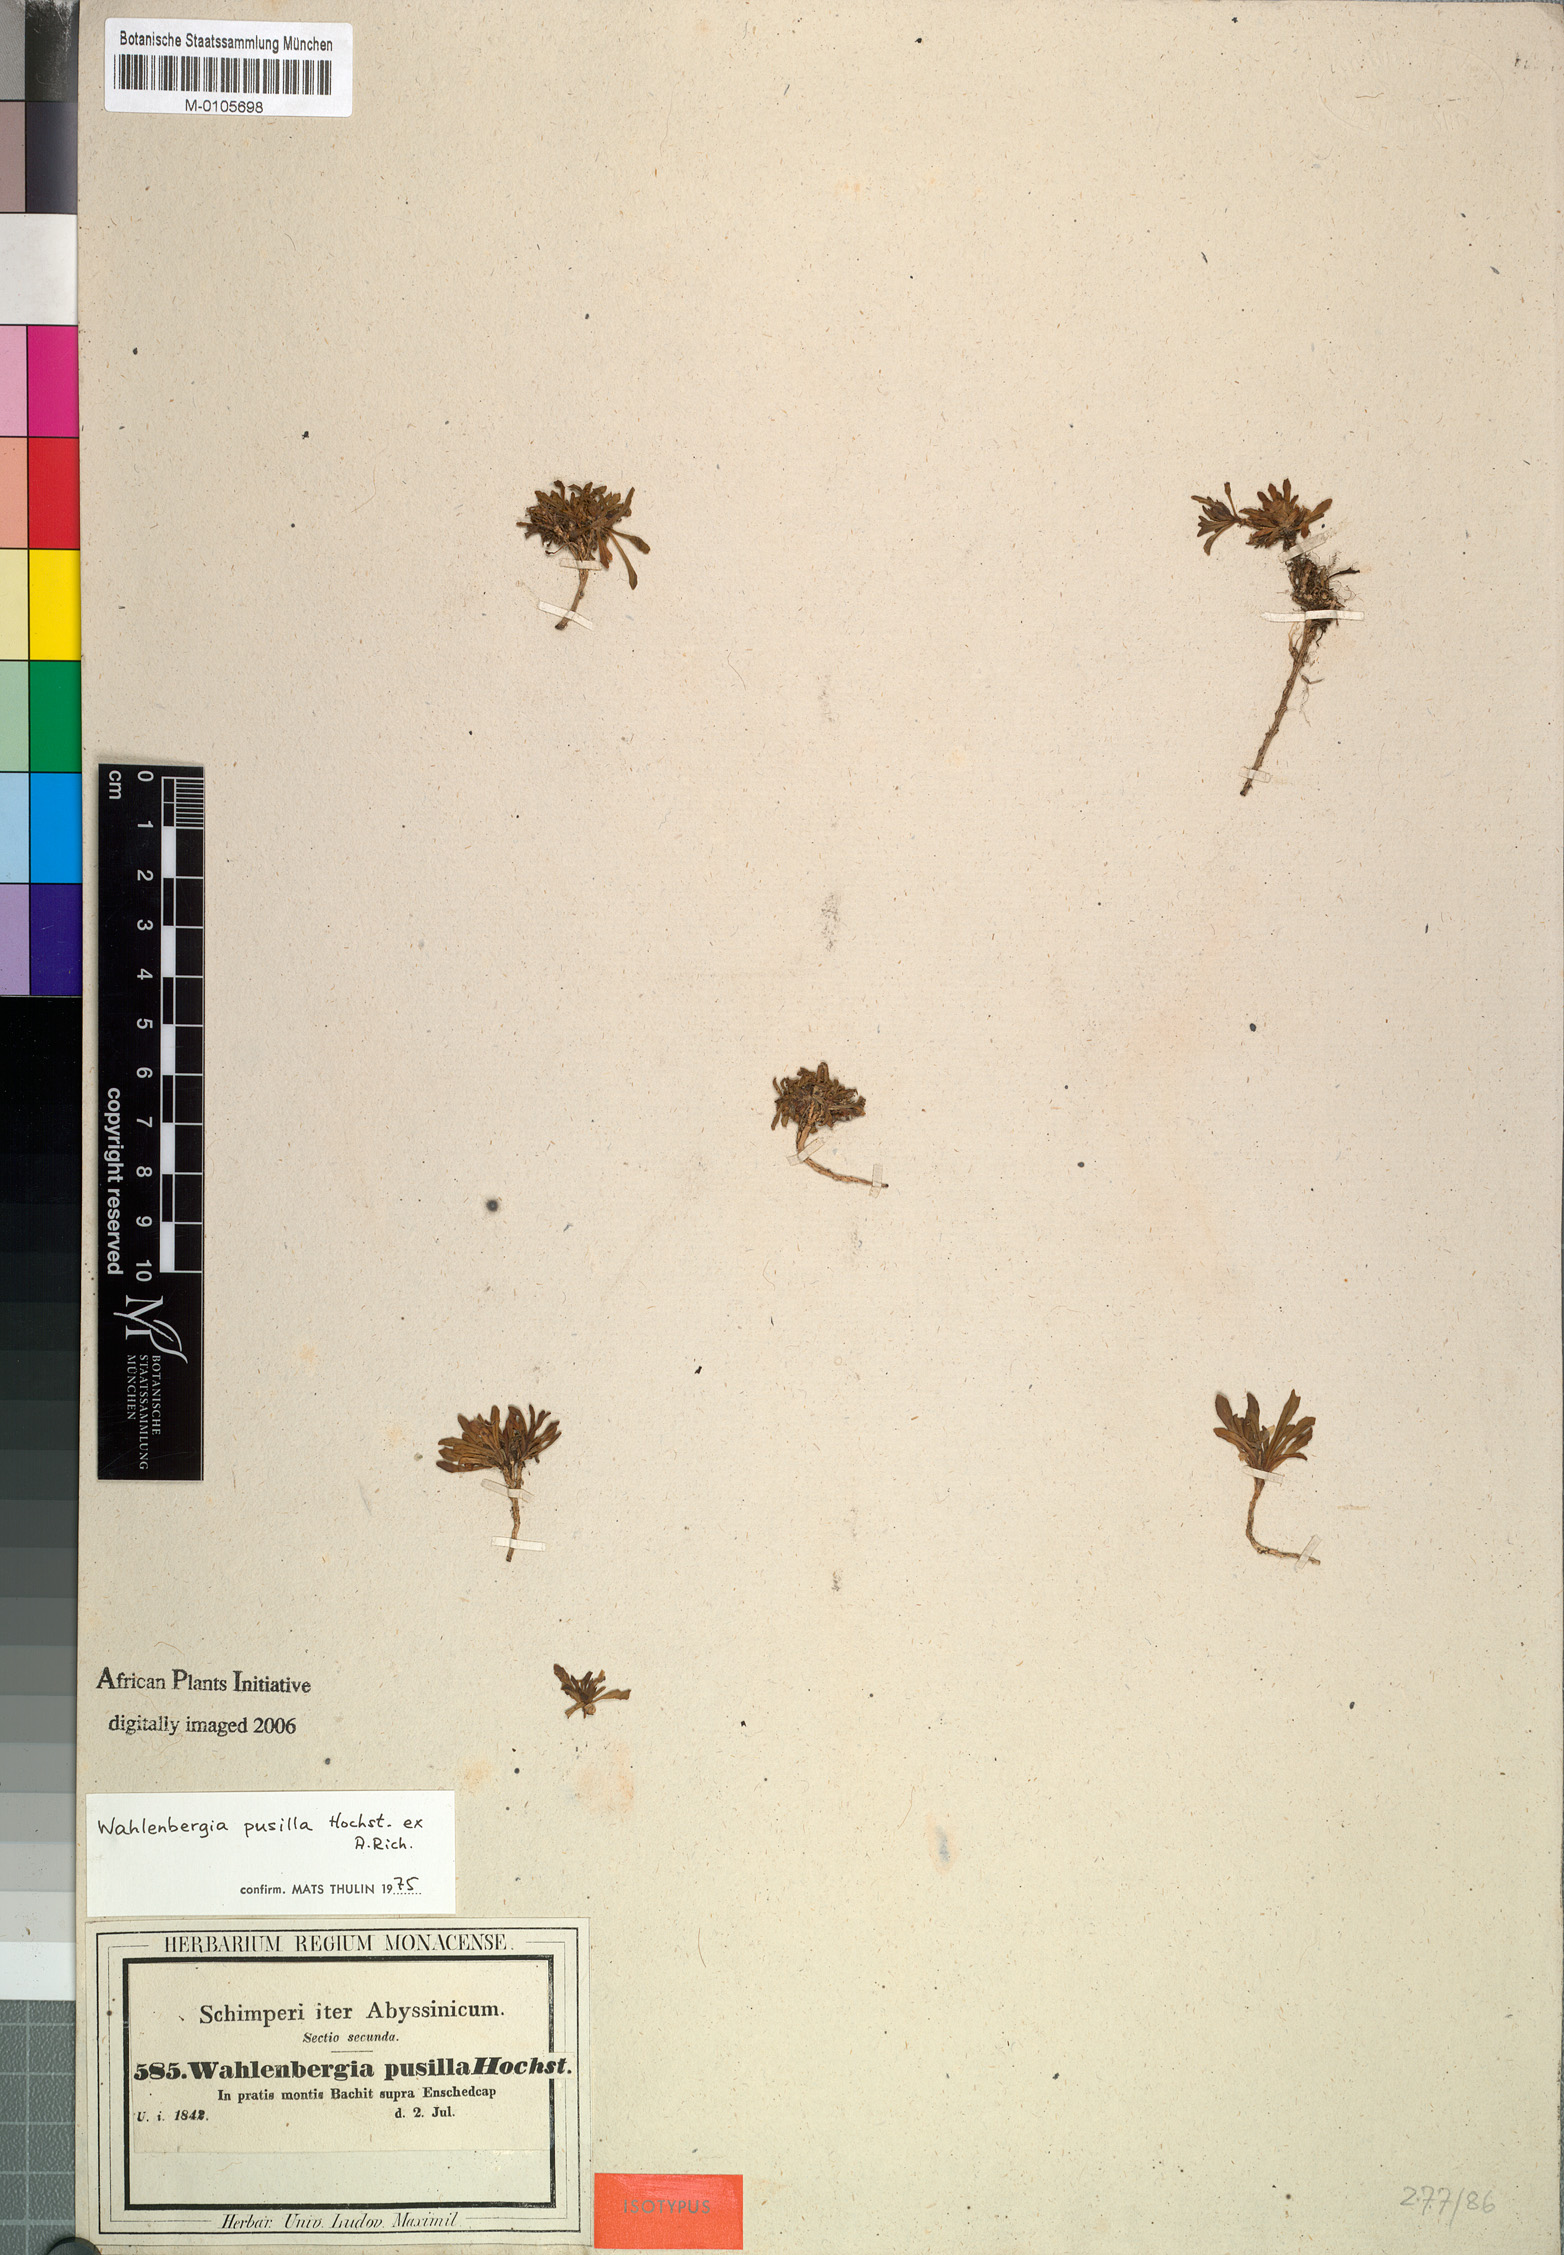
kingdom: Plantae
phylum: Tracheophyta
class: Magnoliopsida
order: Asterales
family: Campanulaceae
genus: Wahlenbergia
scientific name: Wahlenbergia pusilla
